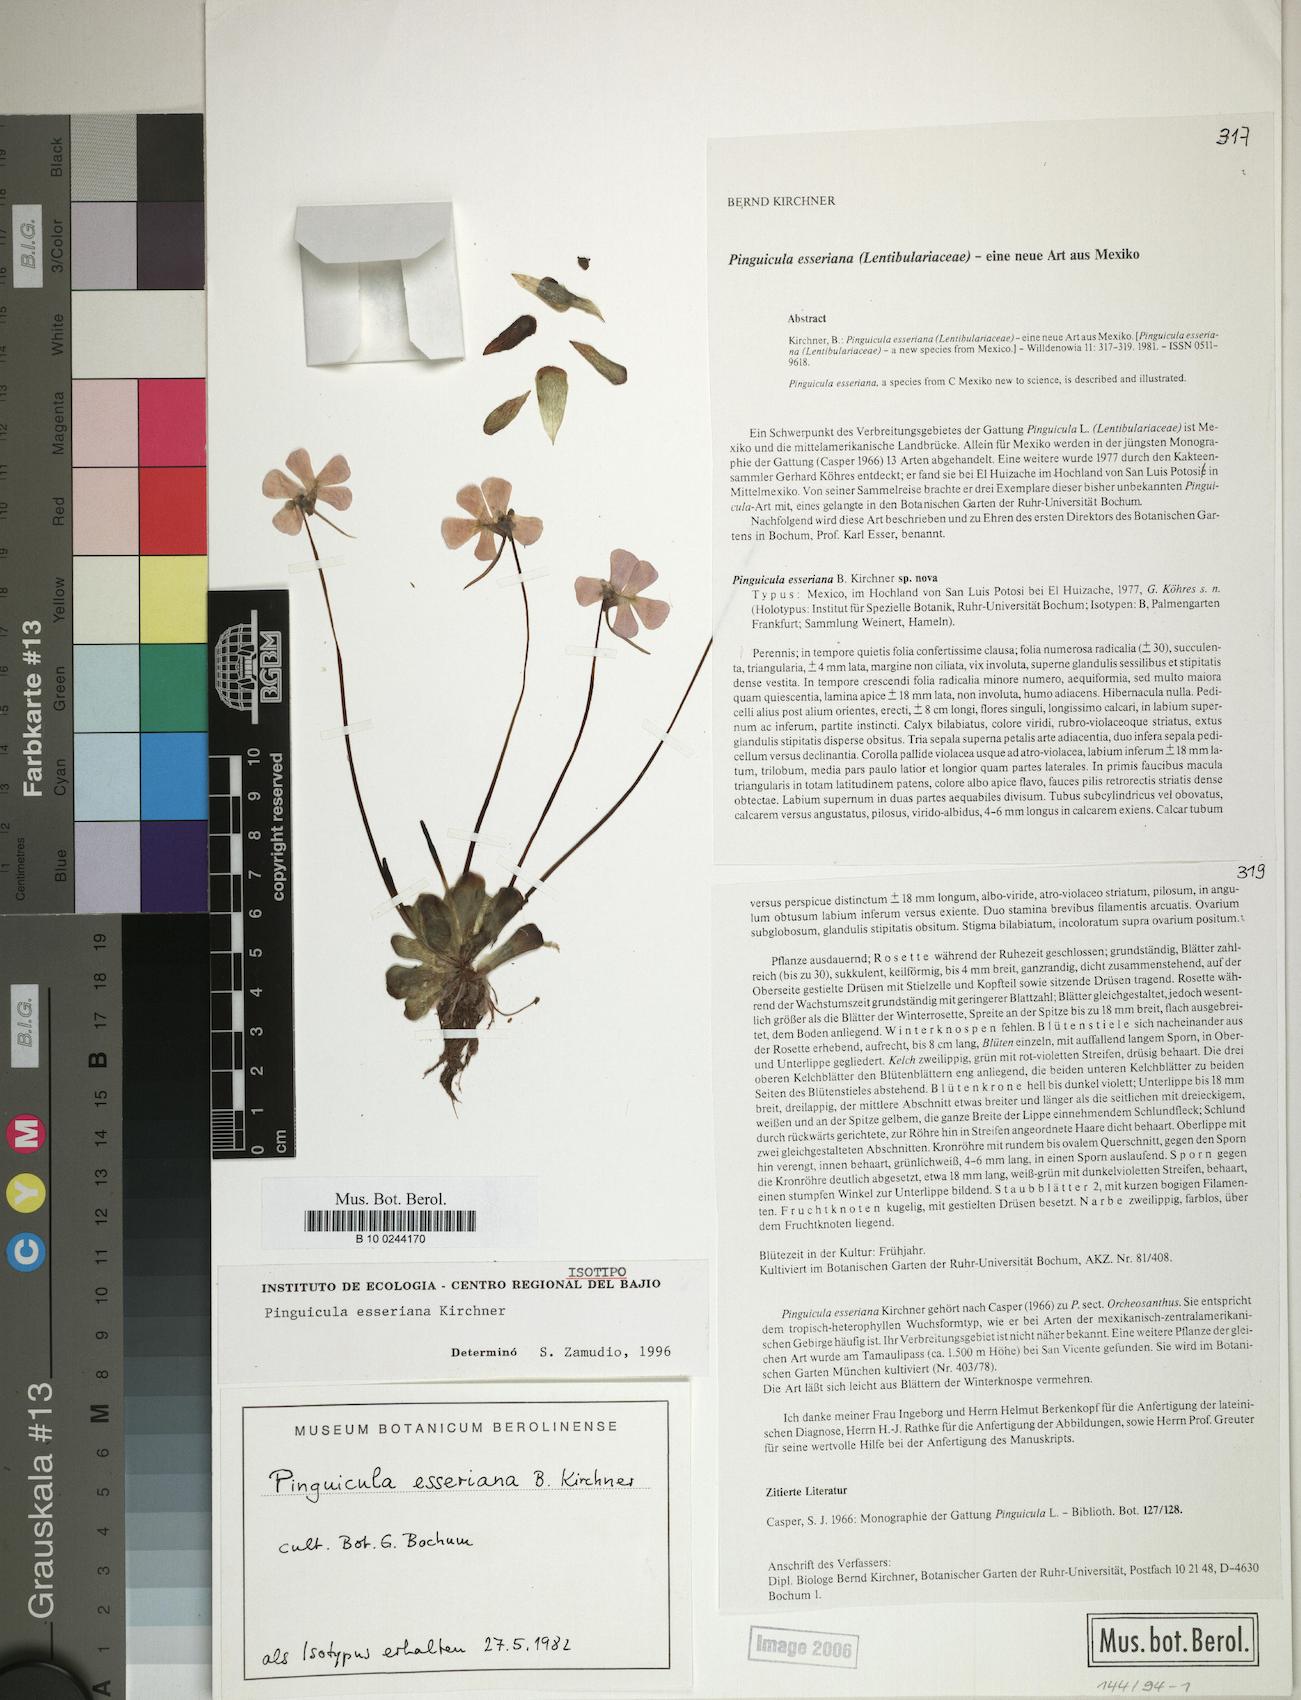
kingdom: Plantae
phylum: Tracheophyta
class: Magnoliopsida
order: Lamiales
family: Lentibulariaceae
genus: Pinguicula
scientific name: Pinguicula esseriana
